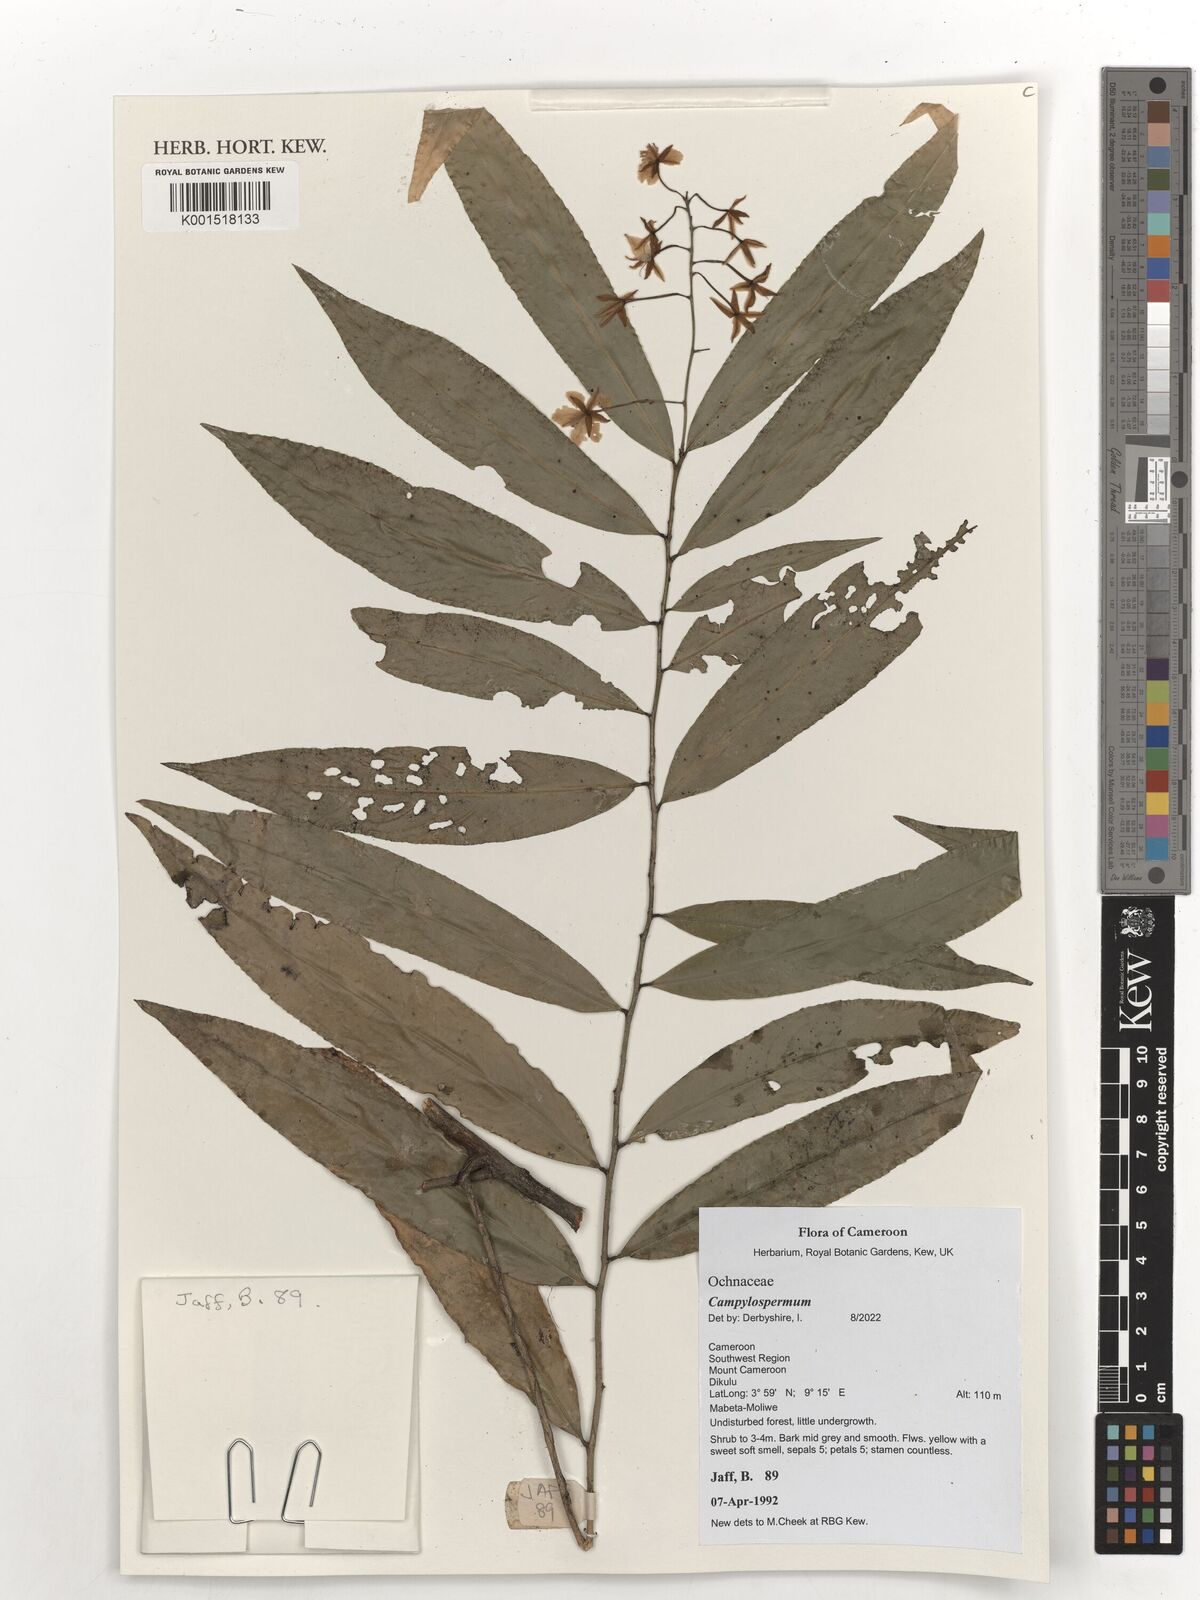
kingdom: Plantae
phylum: Tracheophyta
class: Magnoliopsida
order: Malpighiales
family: Ochnaceae
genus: Campylospermum
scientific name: Campylospermum reticulatum
